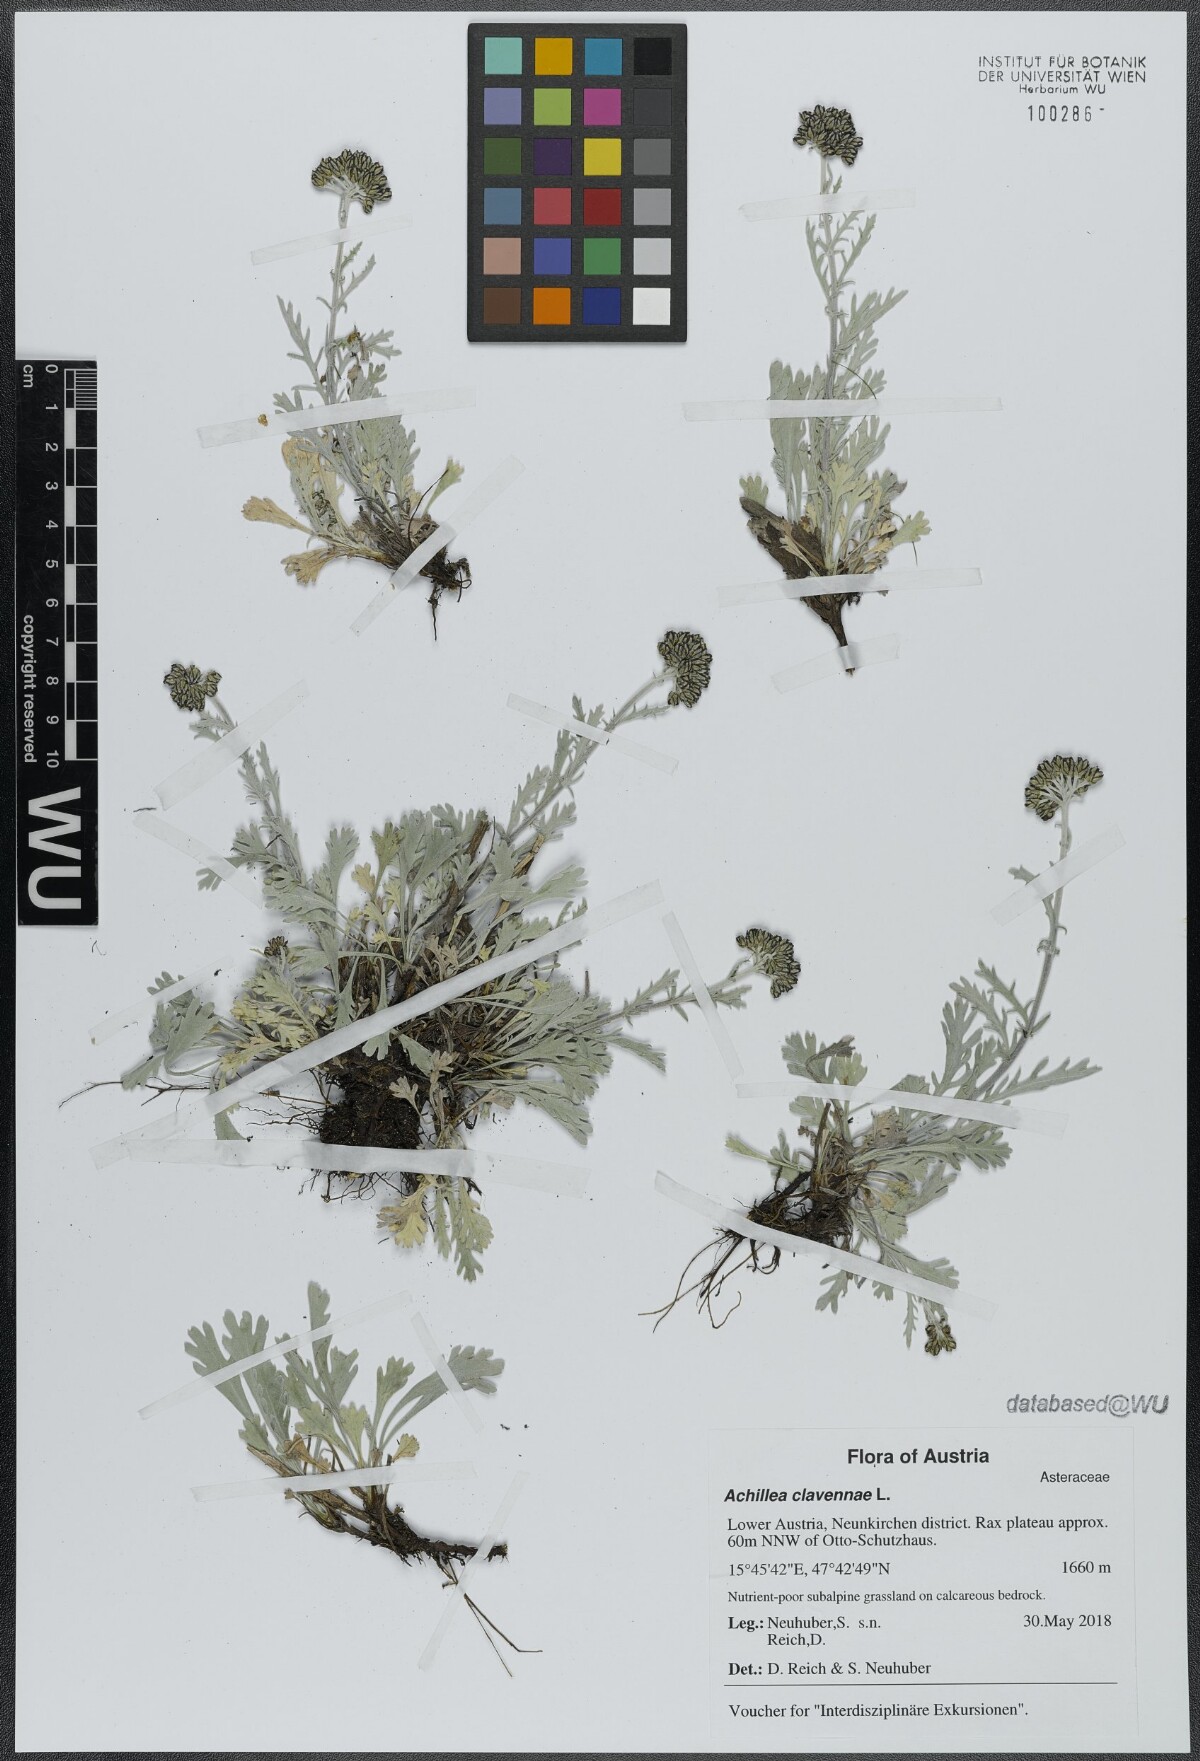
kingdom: Plantae
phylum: Tracheophyta
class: Magnoliopsida
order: Asterales
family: Asteraceae
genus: Achillea
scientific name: Achillea clavennae
